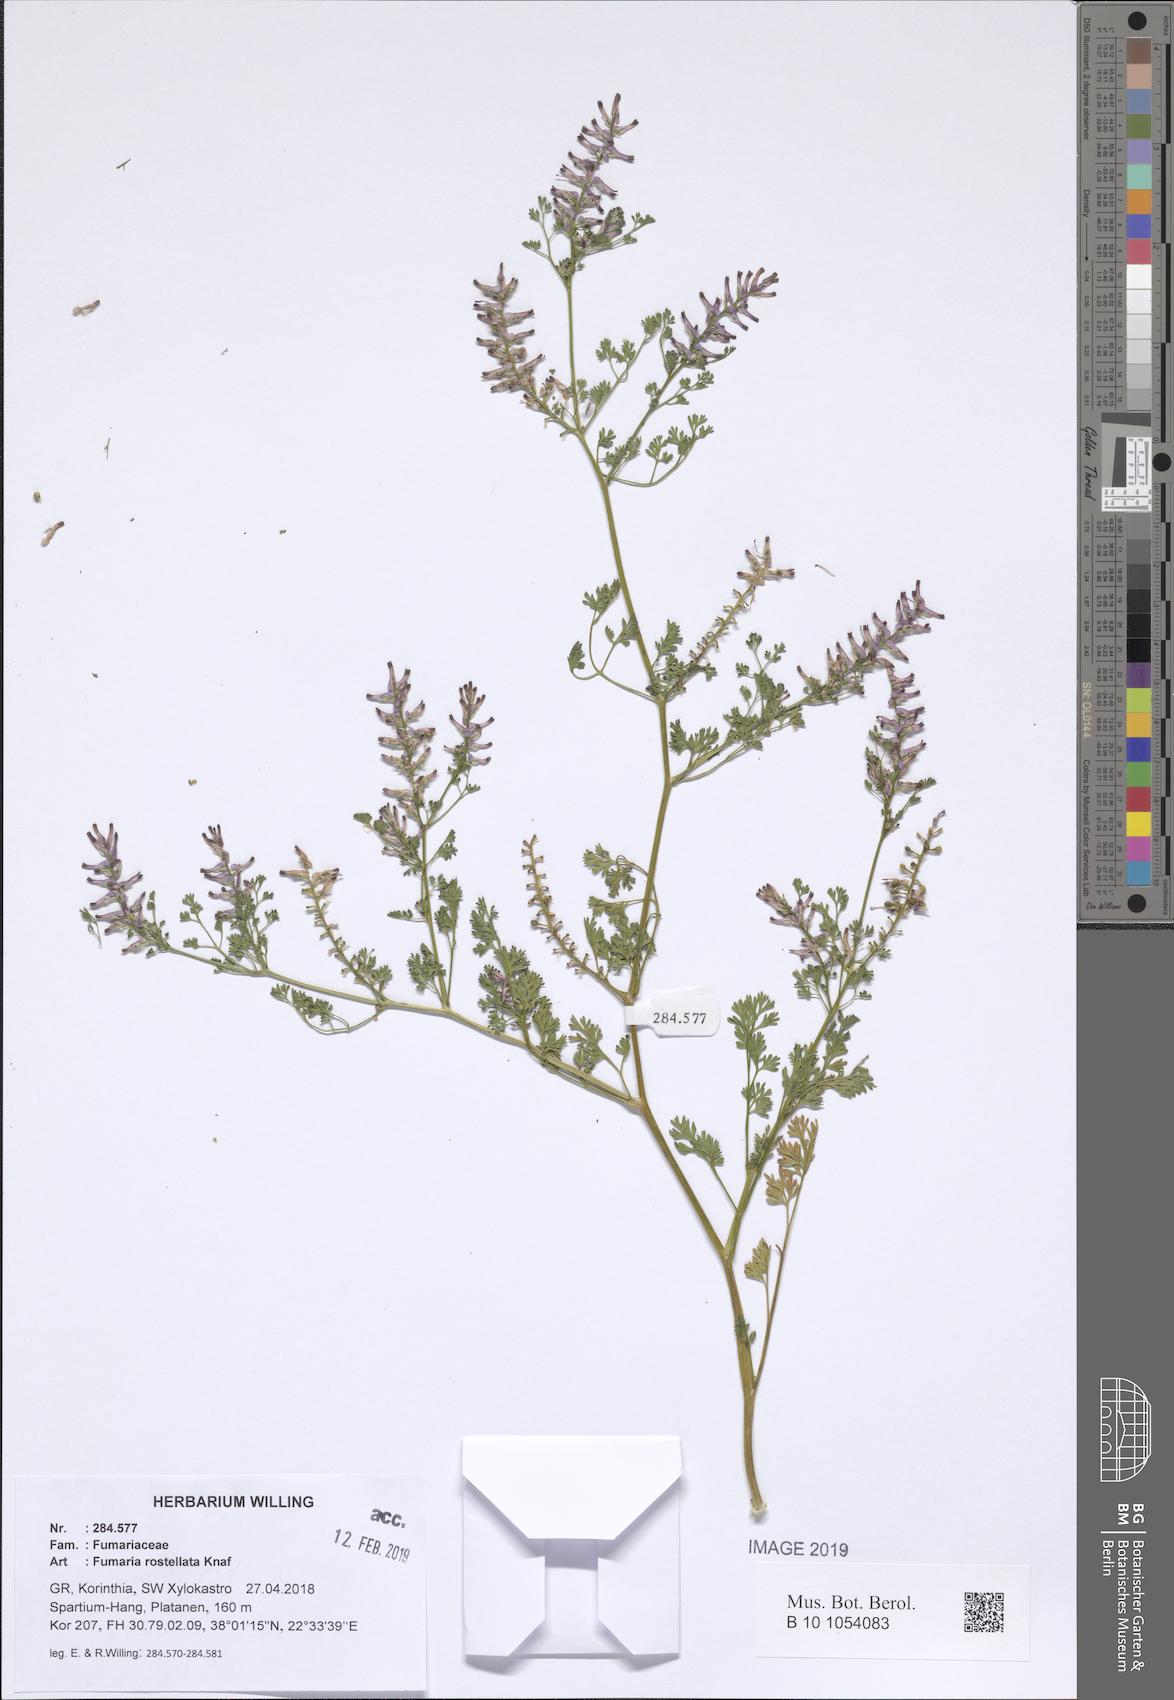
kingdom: Plantae
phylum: Tracheophyta
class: Magnoliopsida
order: Ranunculales
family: Papaveraceae
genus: Fumaria
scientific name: Fumaria rostellata
